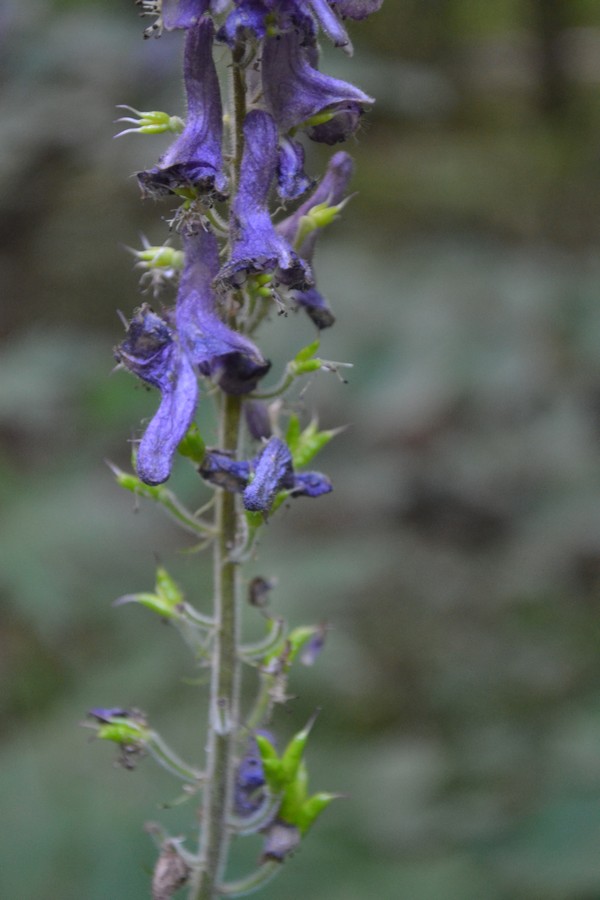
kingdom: Plantae
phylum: Tracheophyta
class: Magnoliopsida
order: Ranunculales
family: Ranunculaceae
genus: Delphinium
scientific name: Delphinium
